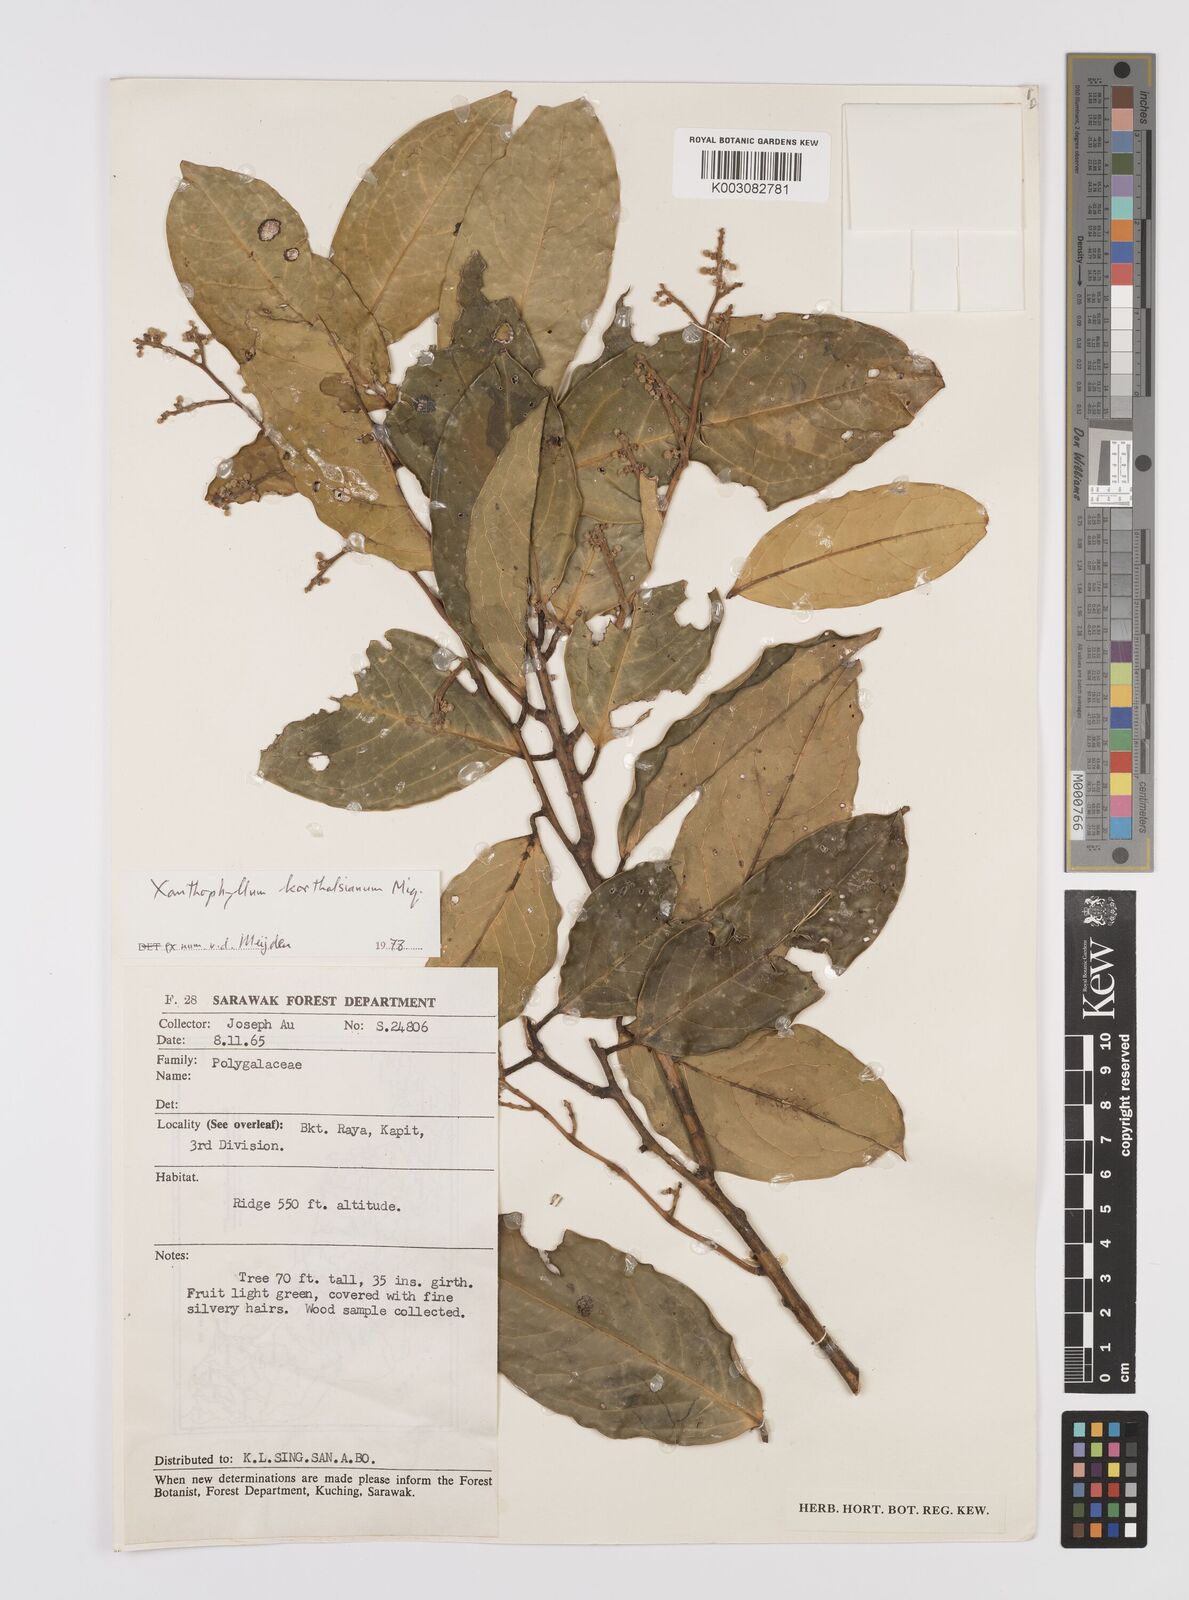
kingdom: Plantae
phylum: Tracheophyta
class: Magnoliopsida
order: Fabales
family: Polygalaceae
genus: Xanthophyllum
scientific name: Xanthophyllum korthalsianum
